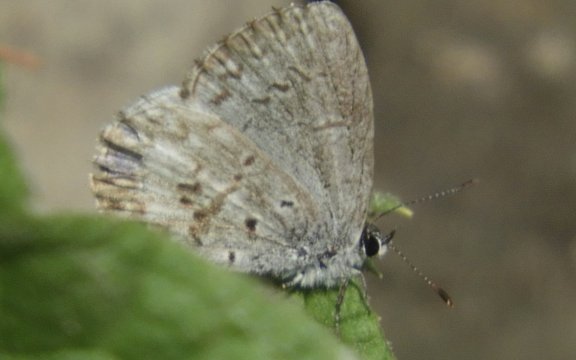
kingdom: Animalia
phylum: Arthropoda
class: Insecta
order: Lepidoptera
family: Lycaenidae
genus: Celastrina
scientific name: Celastrina lucia
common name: Northern Spring Azure
